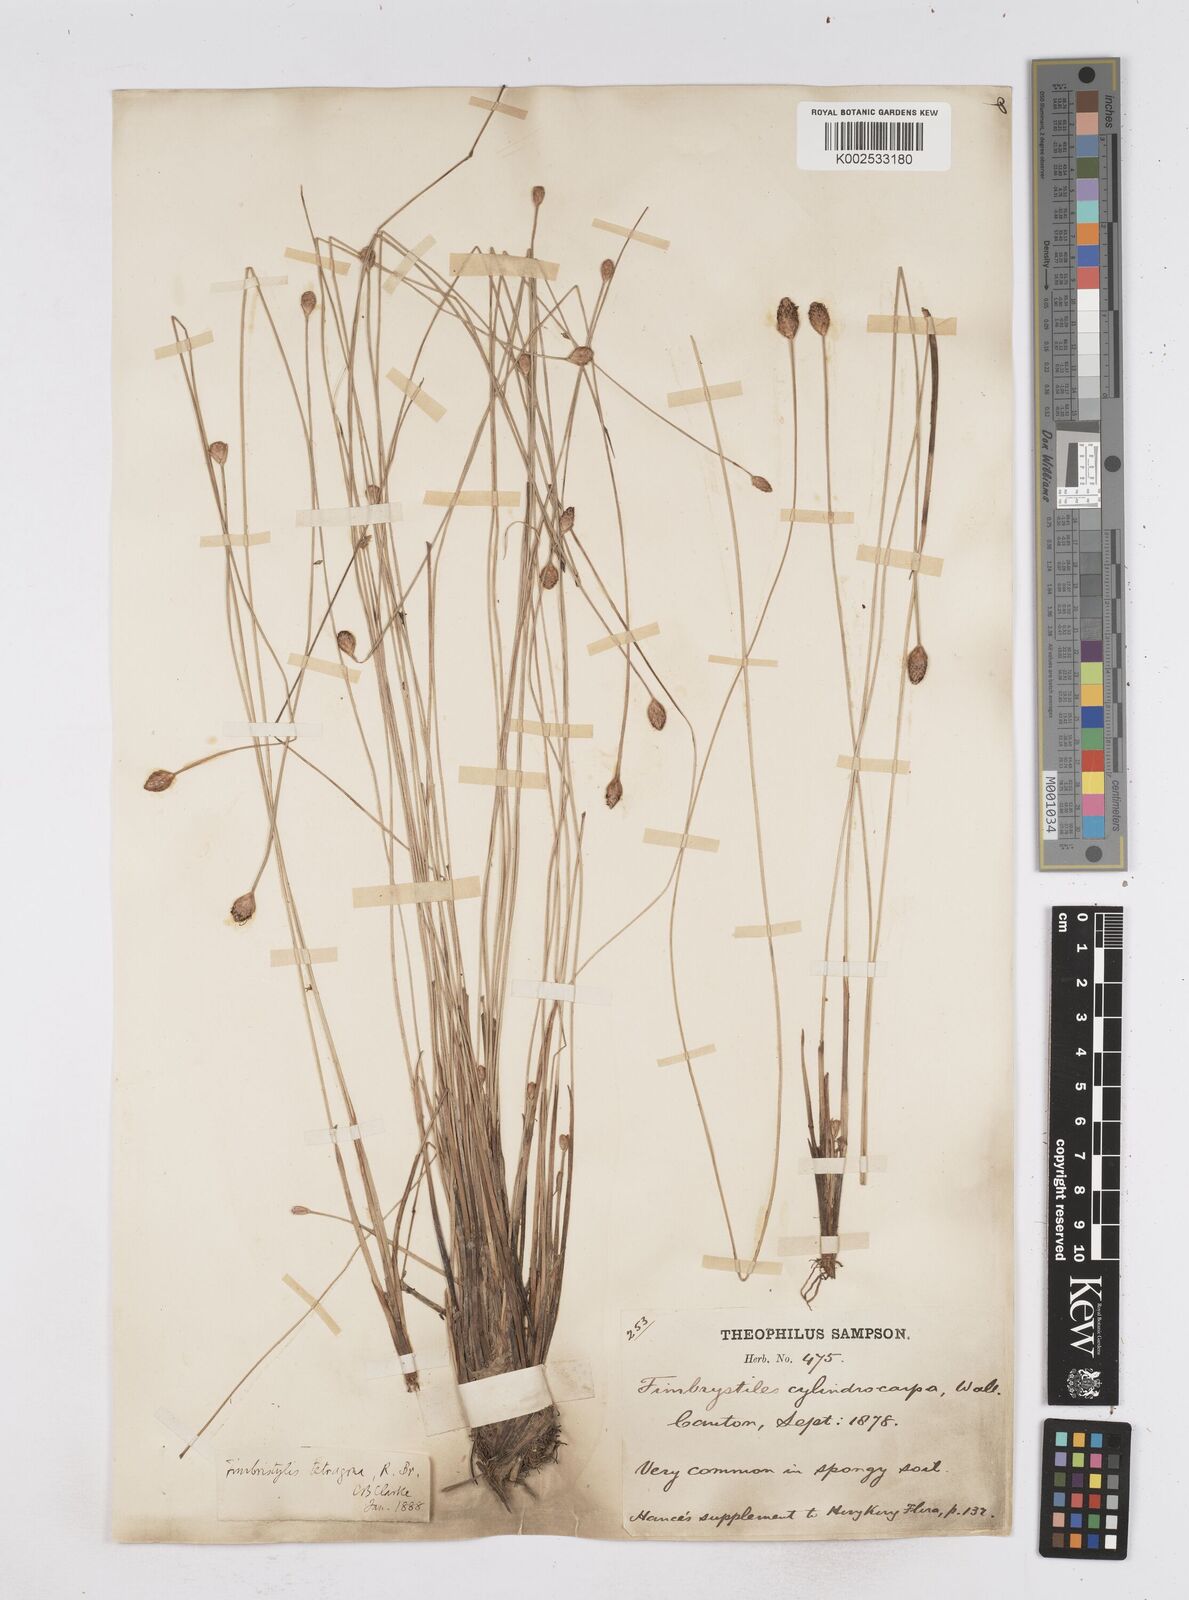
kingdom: Plantae
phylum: Tracheophyta
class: Liliopsida
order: Poales
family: Cyperaceae
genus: Fimbristylis
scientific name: Fimbristylis tetragona
